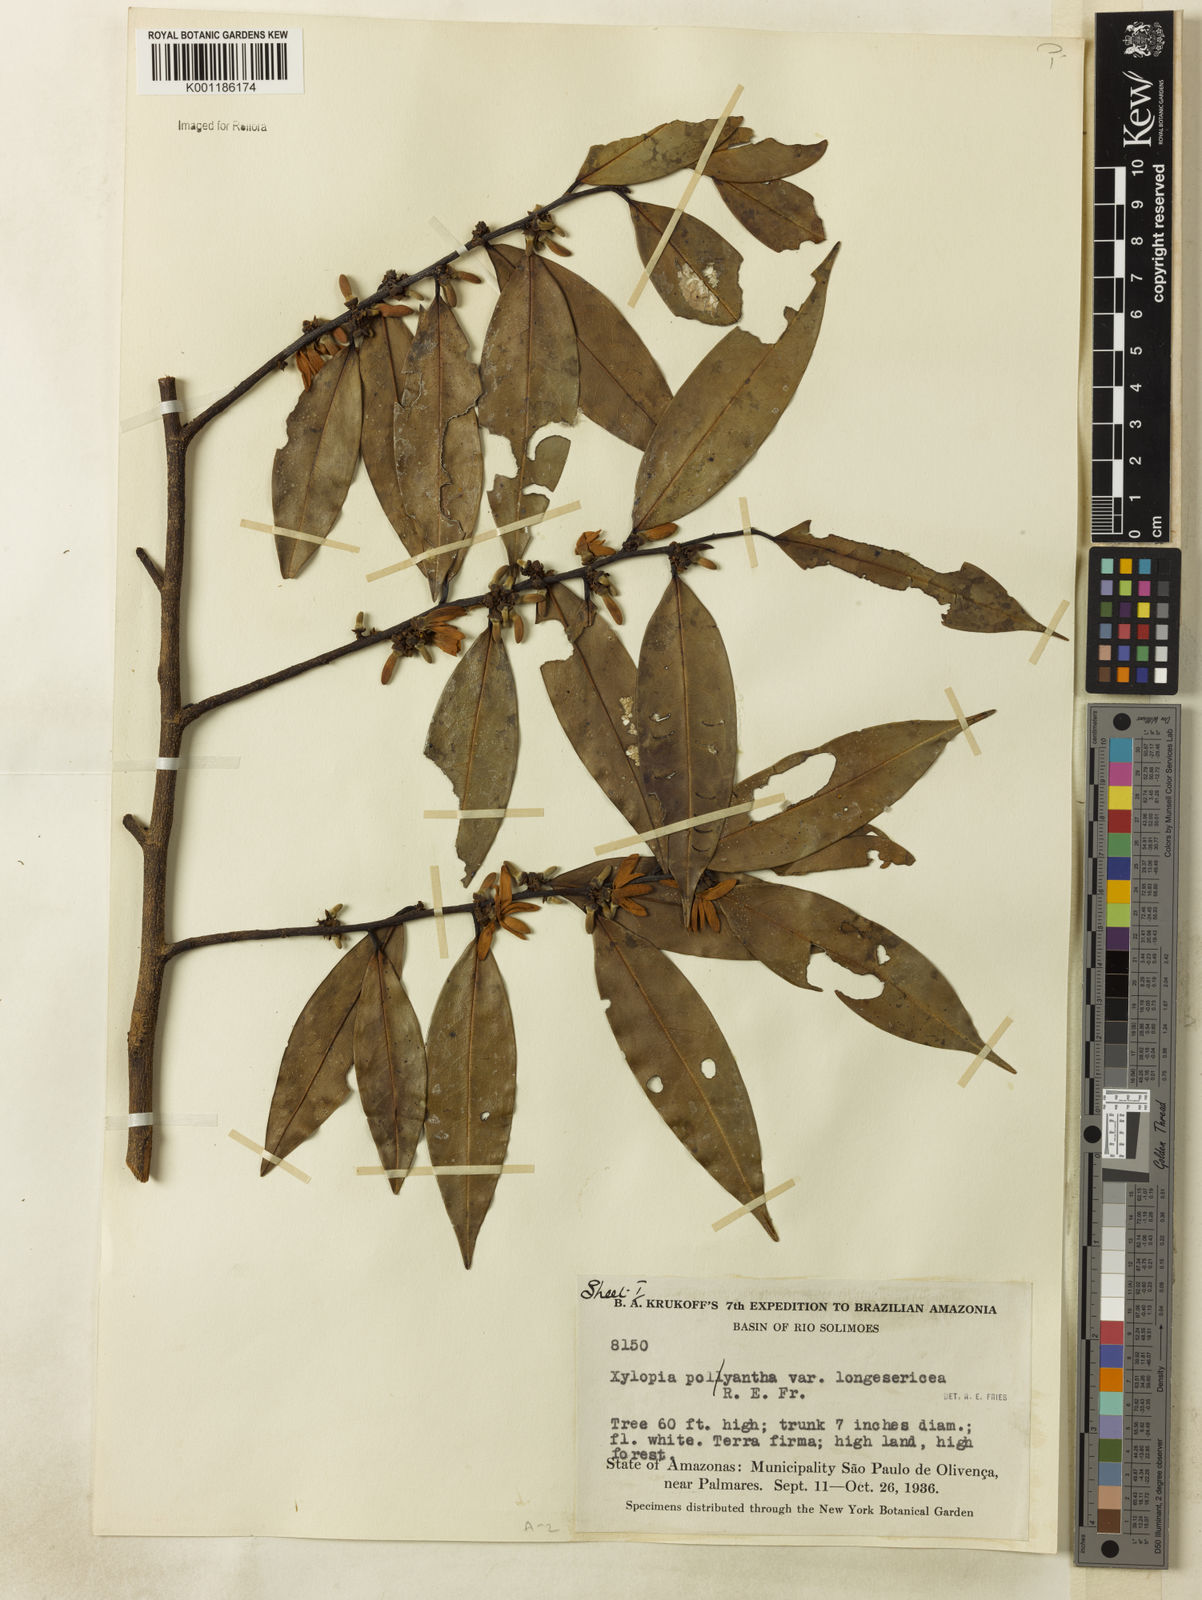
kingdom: Plantae
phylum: Tracheophyta
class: Magnoliopsida
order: Magnoliales
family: Annonaceae
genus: Xylopia
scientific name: Xylopia polyantha
